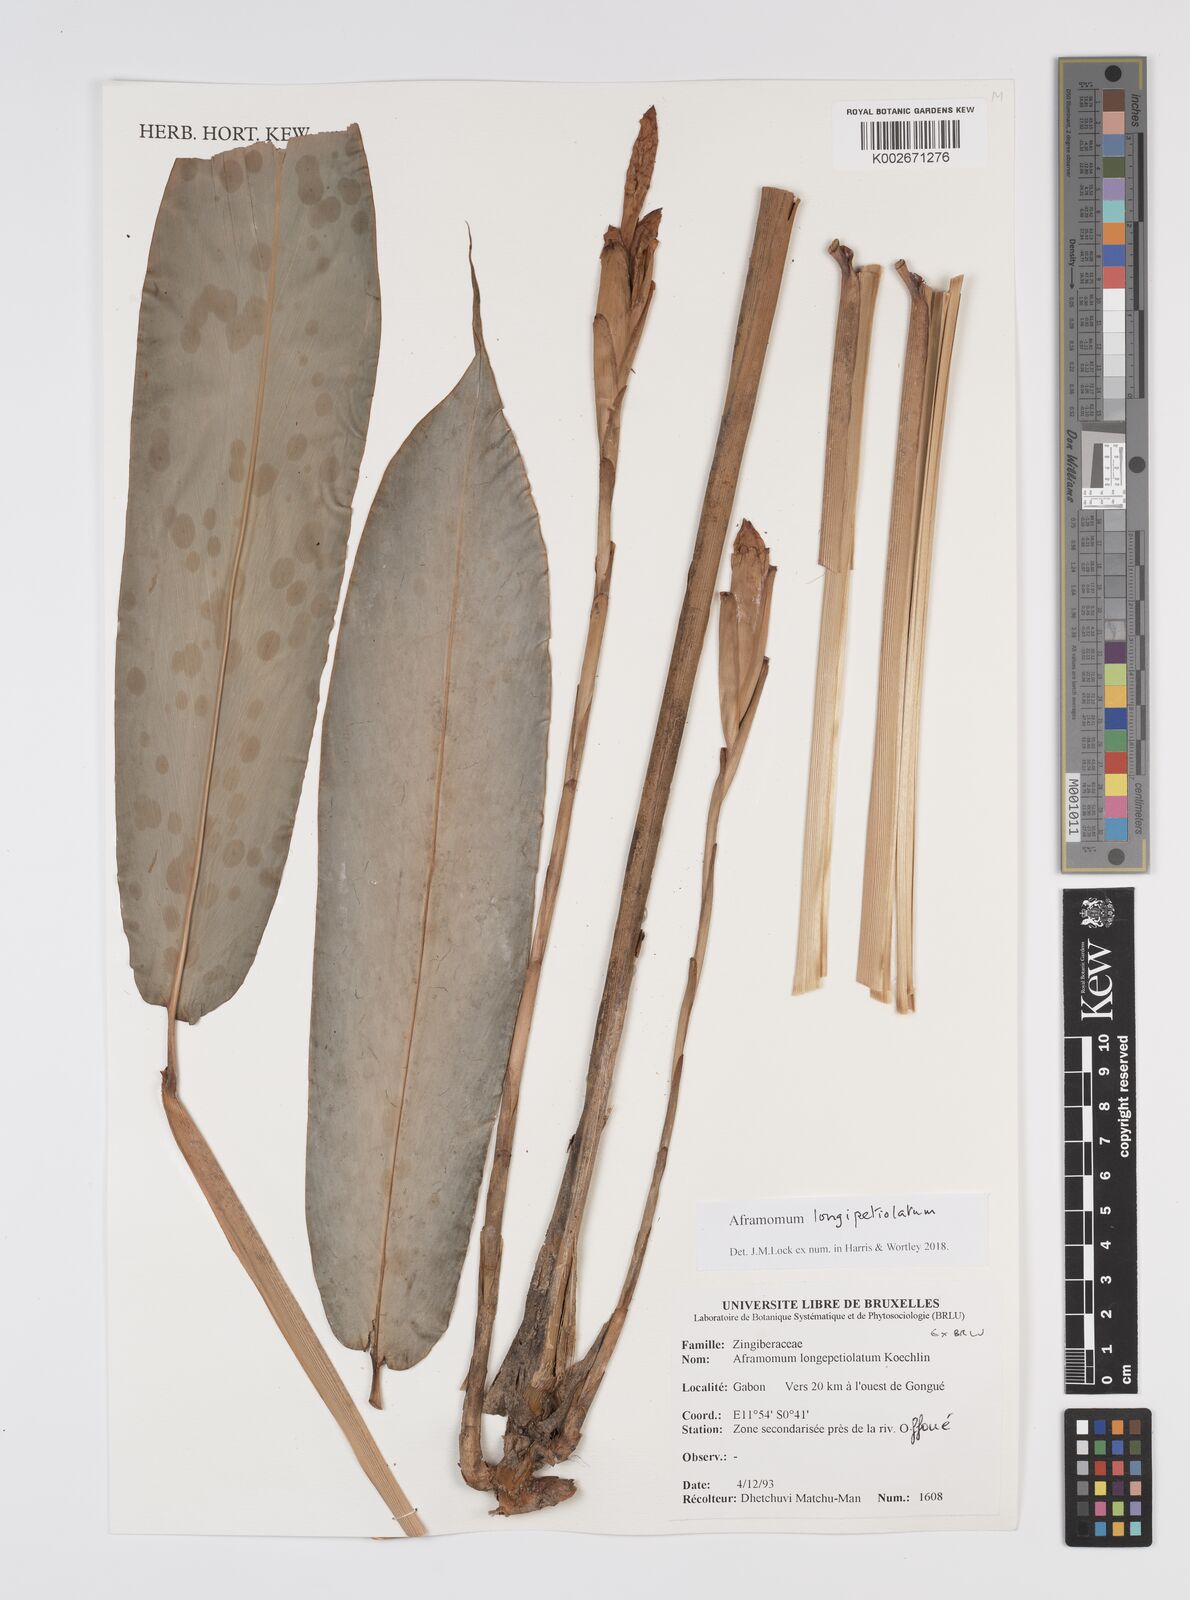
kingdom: Plantae
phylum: Tracheophyta
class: Liliopsida
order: Zingiberales
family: Zingiberaceae
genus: Aframomum
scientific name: Aframomum longipetiolatum
